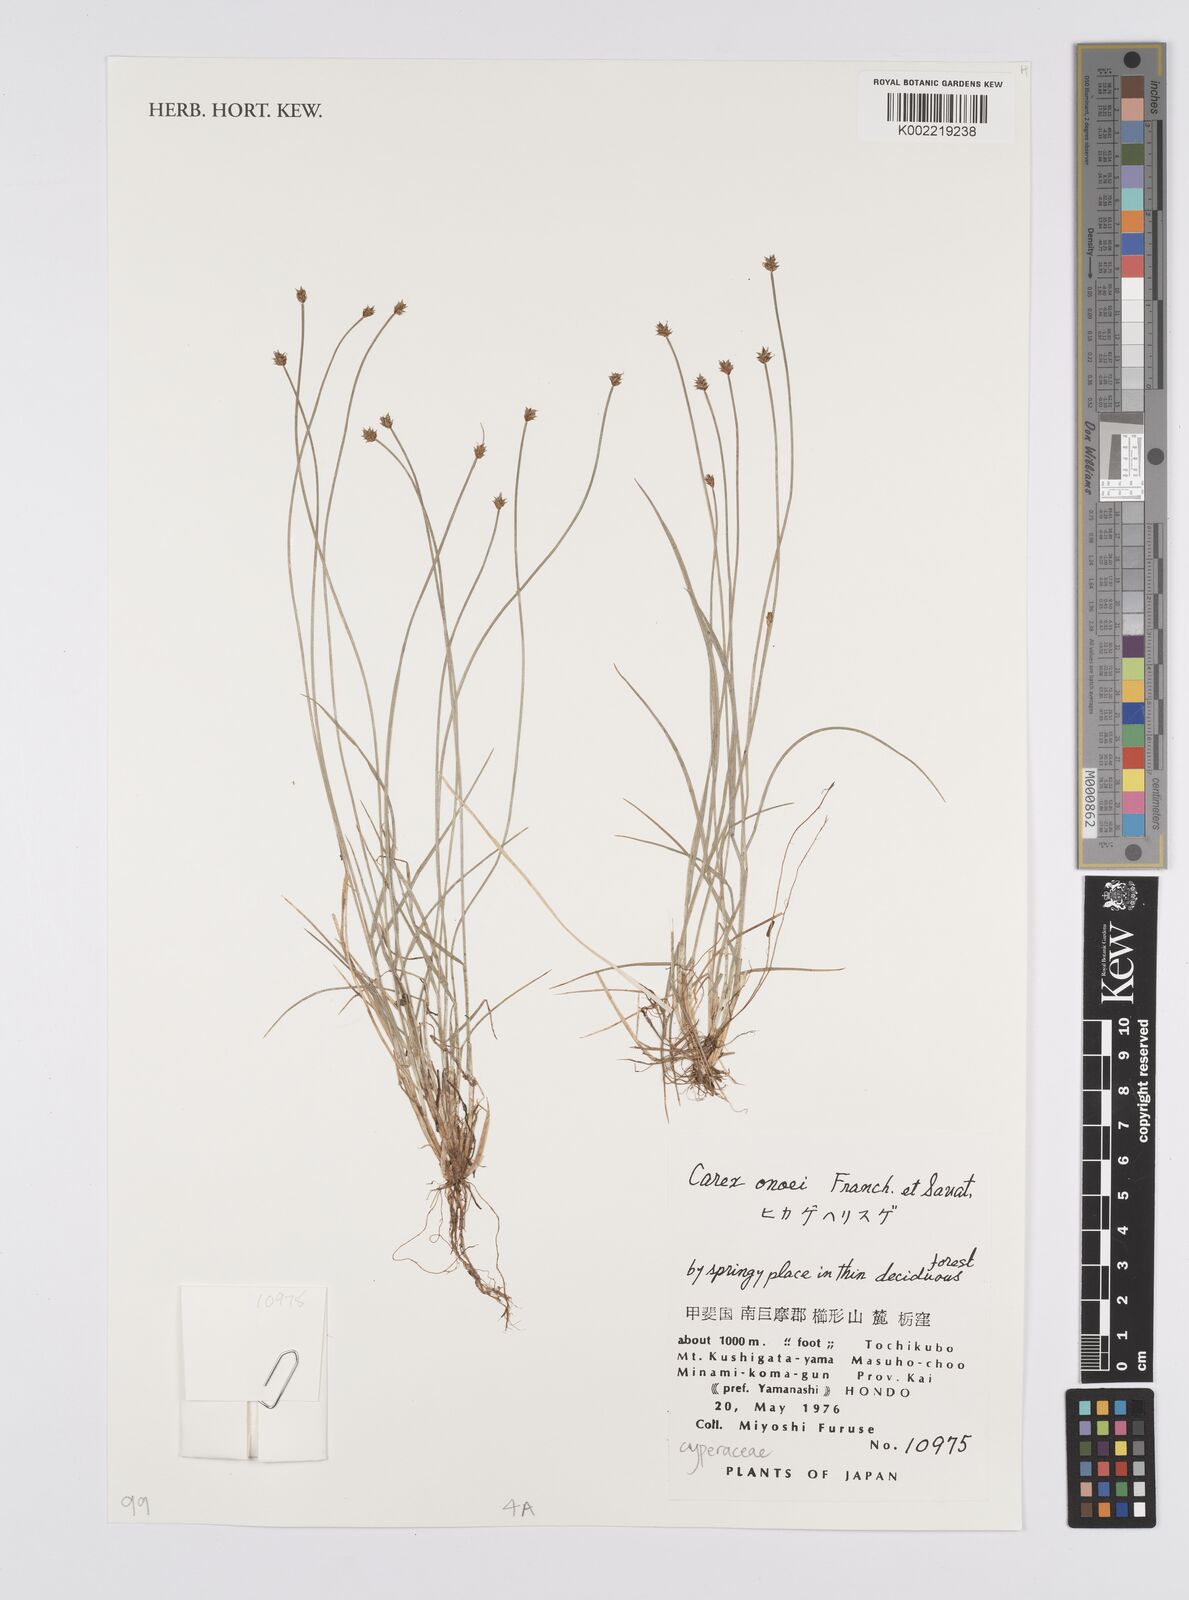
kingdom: Plantae
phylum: Tracheophyta
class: Liliopsida
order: Poales
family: Cyperaceae
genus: Carex
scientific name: Carex onoei
